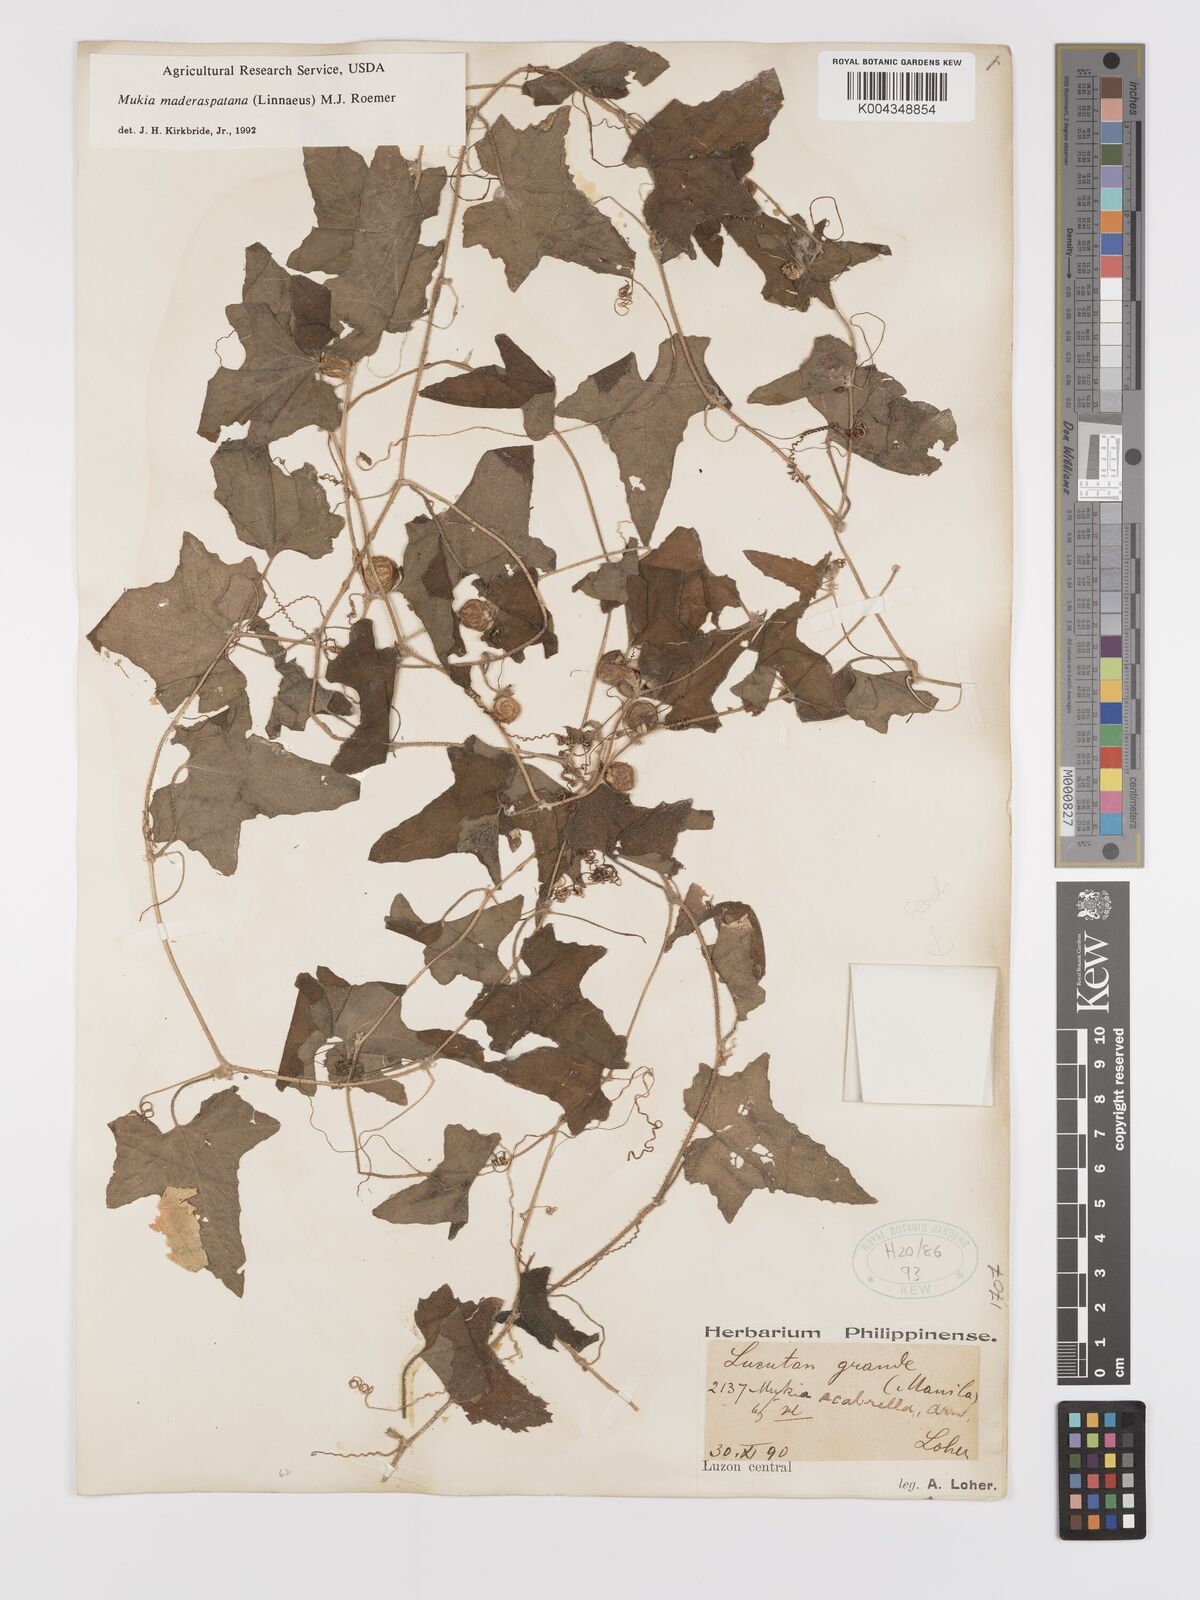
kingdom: Plantae
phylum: Tracheophyta
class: Magnoliopsida
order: Cucurbitales
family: Cucurbitaceae
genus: Cucumis
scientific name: Cucumis maderaspatanus
